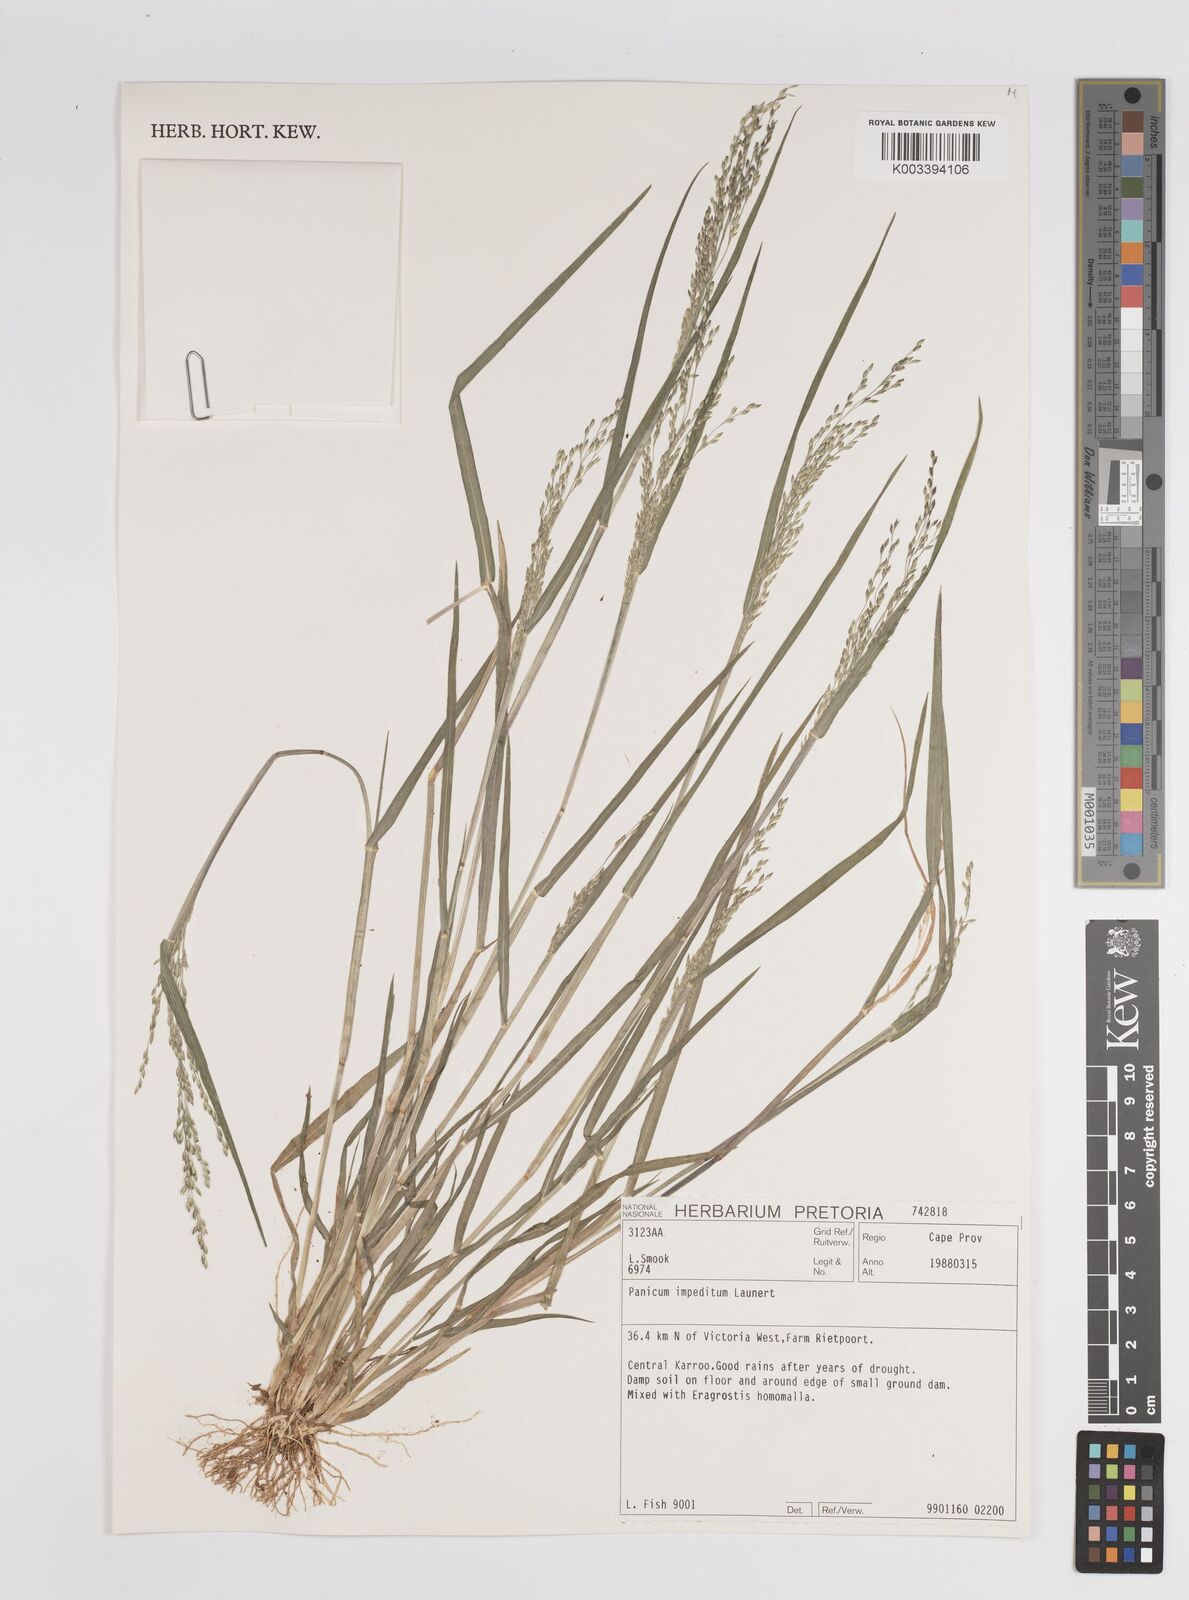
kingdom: Plantae
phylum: Tracheophyta
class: Liliopsida
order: Poales
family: Poaceae
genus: Panicum
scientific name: Panicum impeditum
